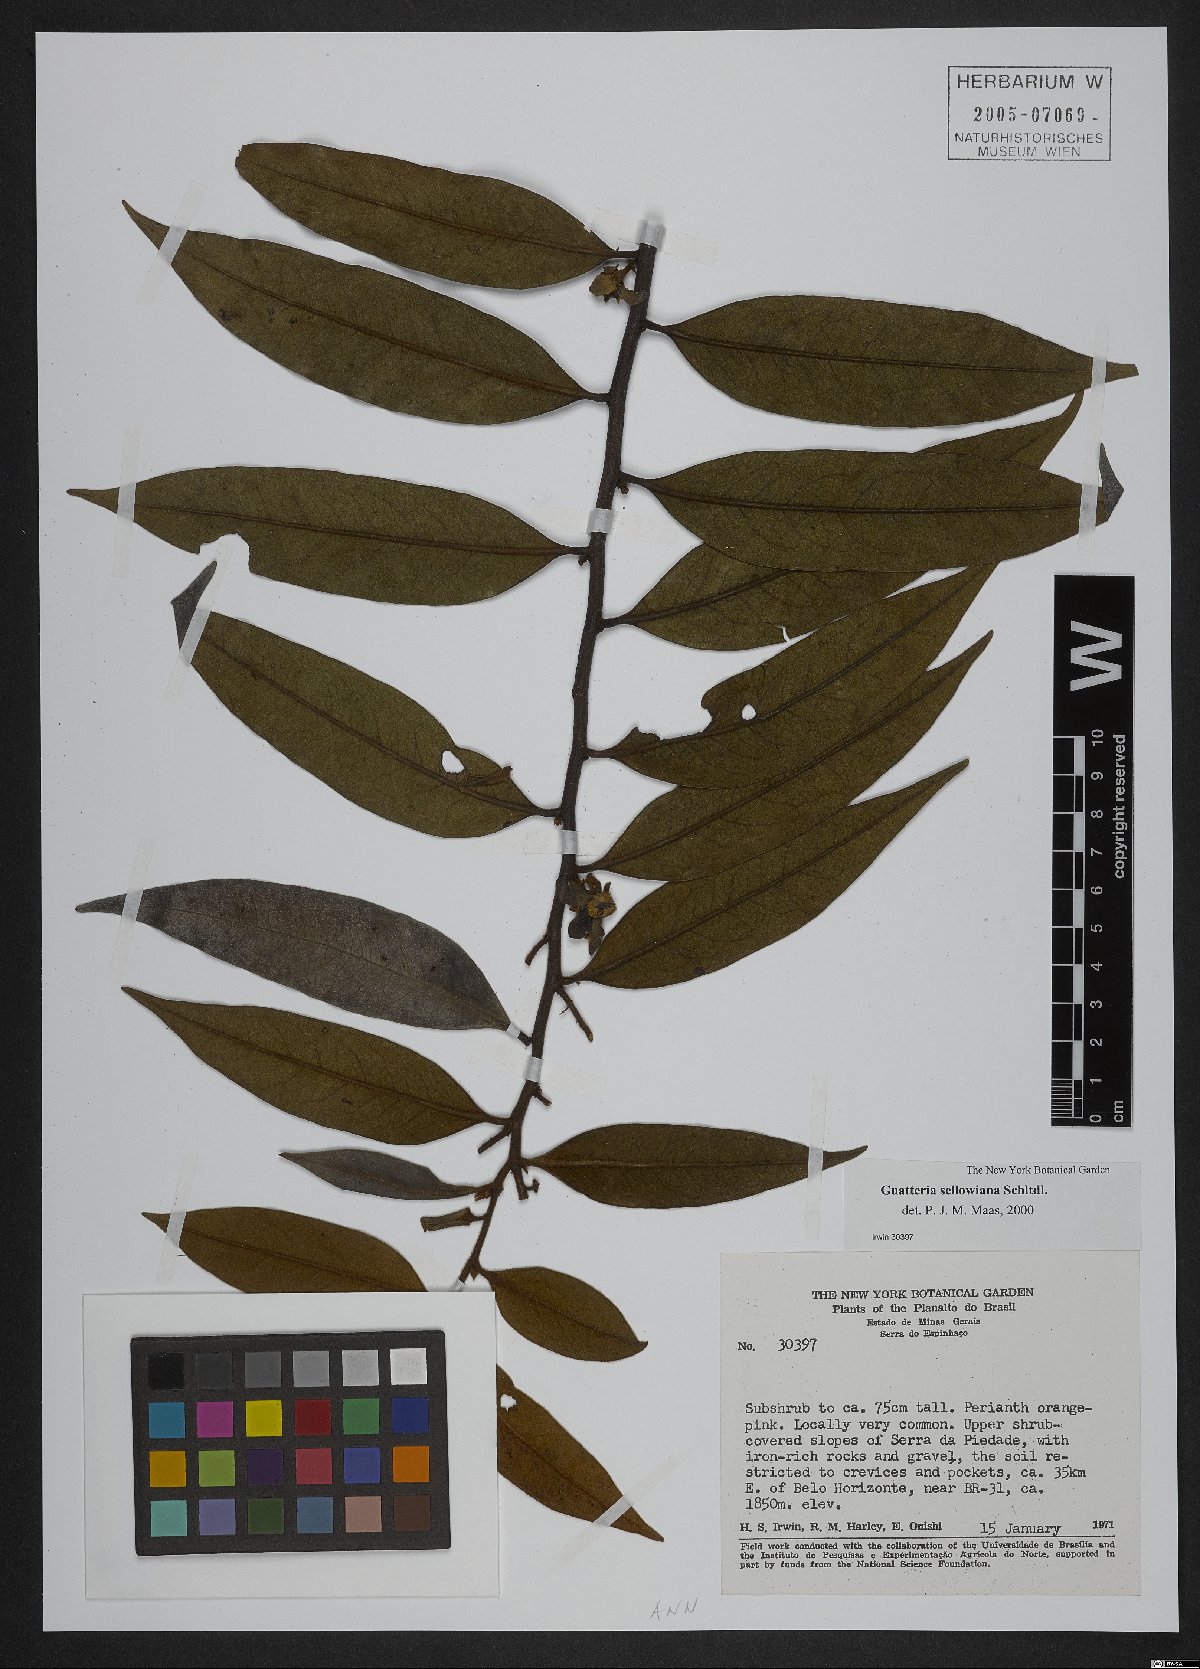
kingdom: Plantae
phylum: Tracheophyta
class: Magnoliopsida
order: Magnoliales
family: Annonaceae
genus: Guatteria
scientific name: Guatteria sellowiana
